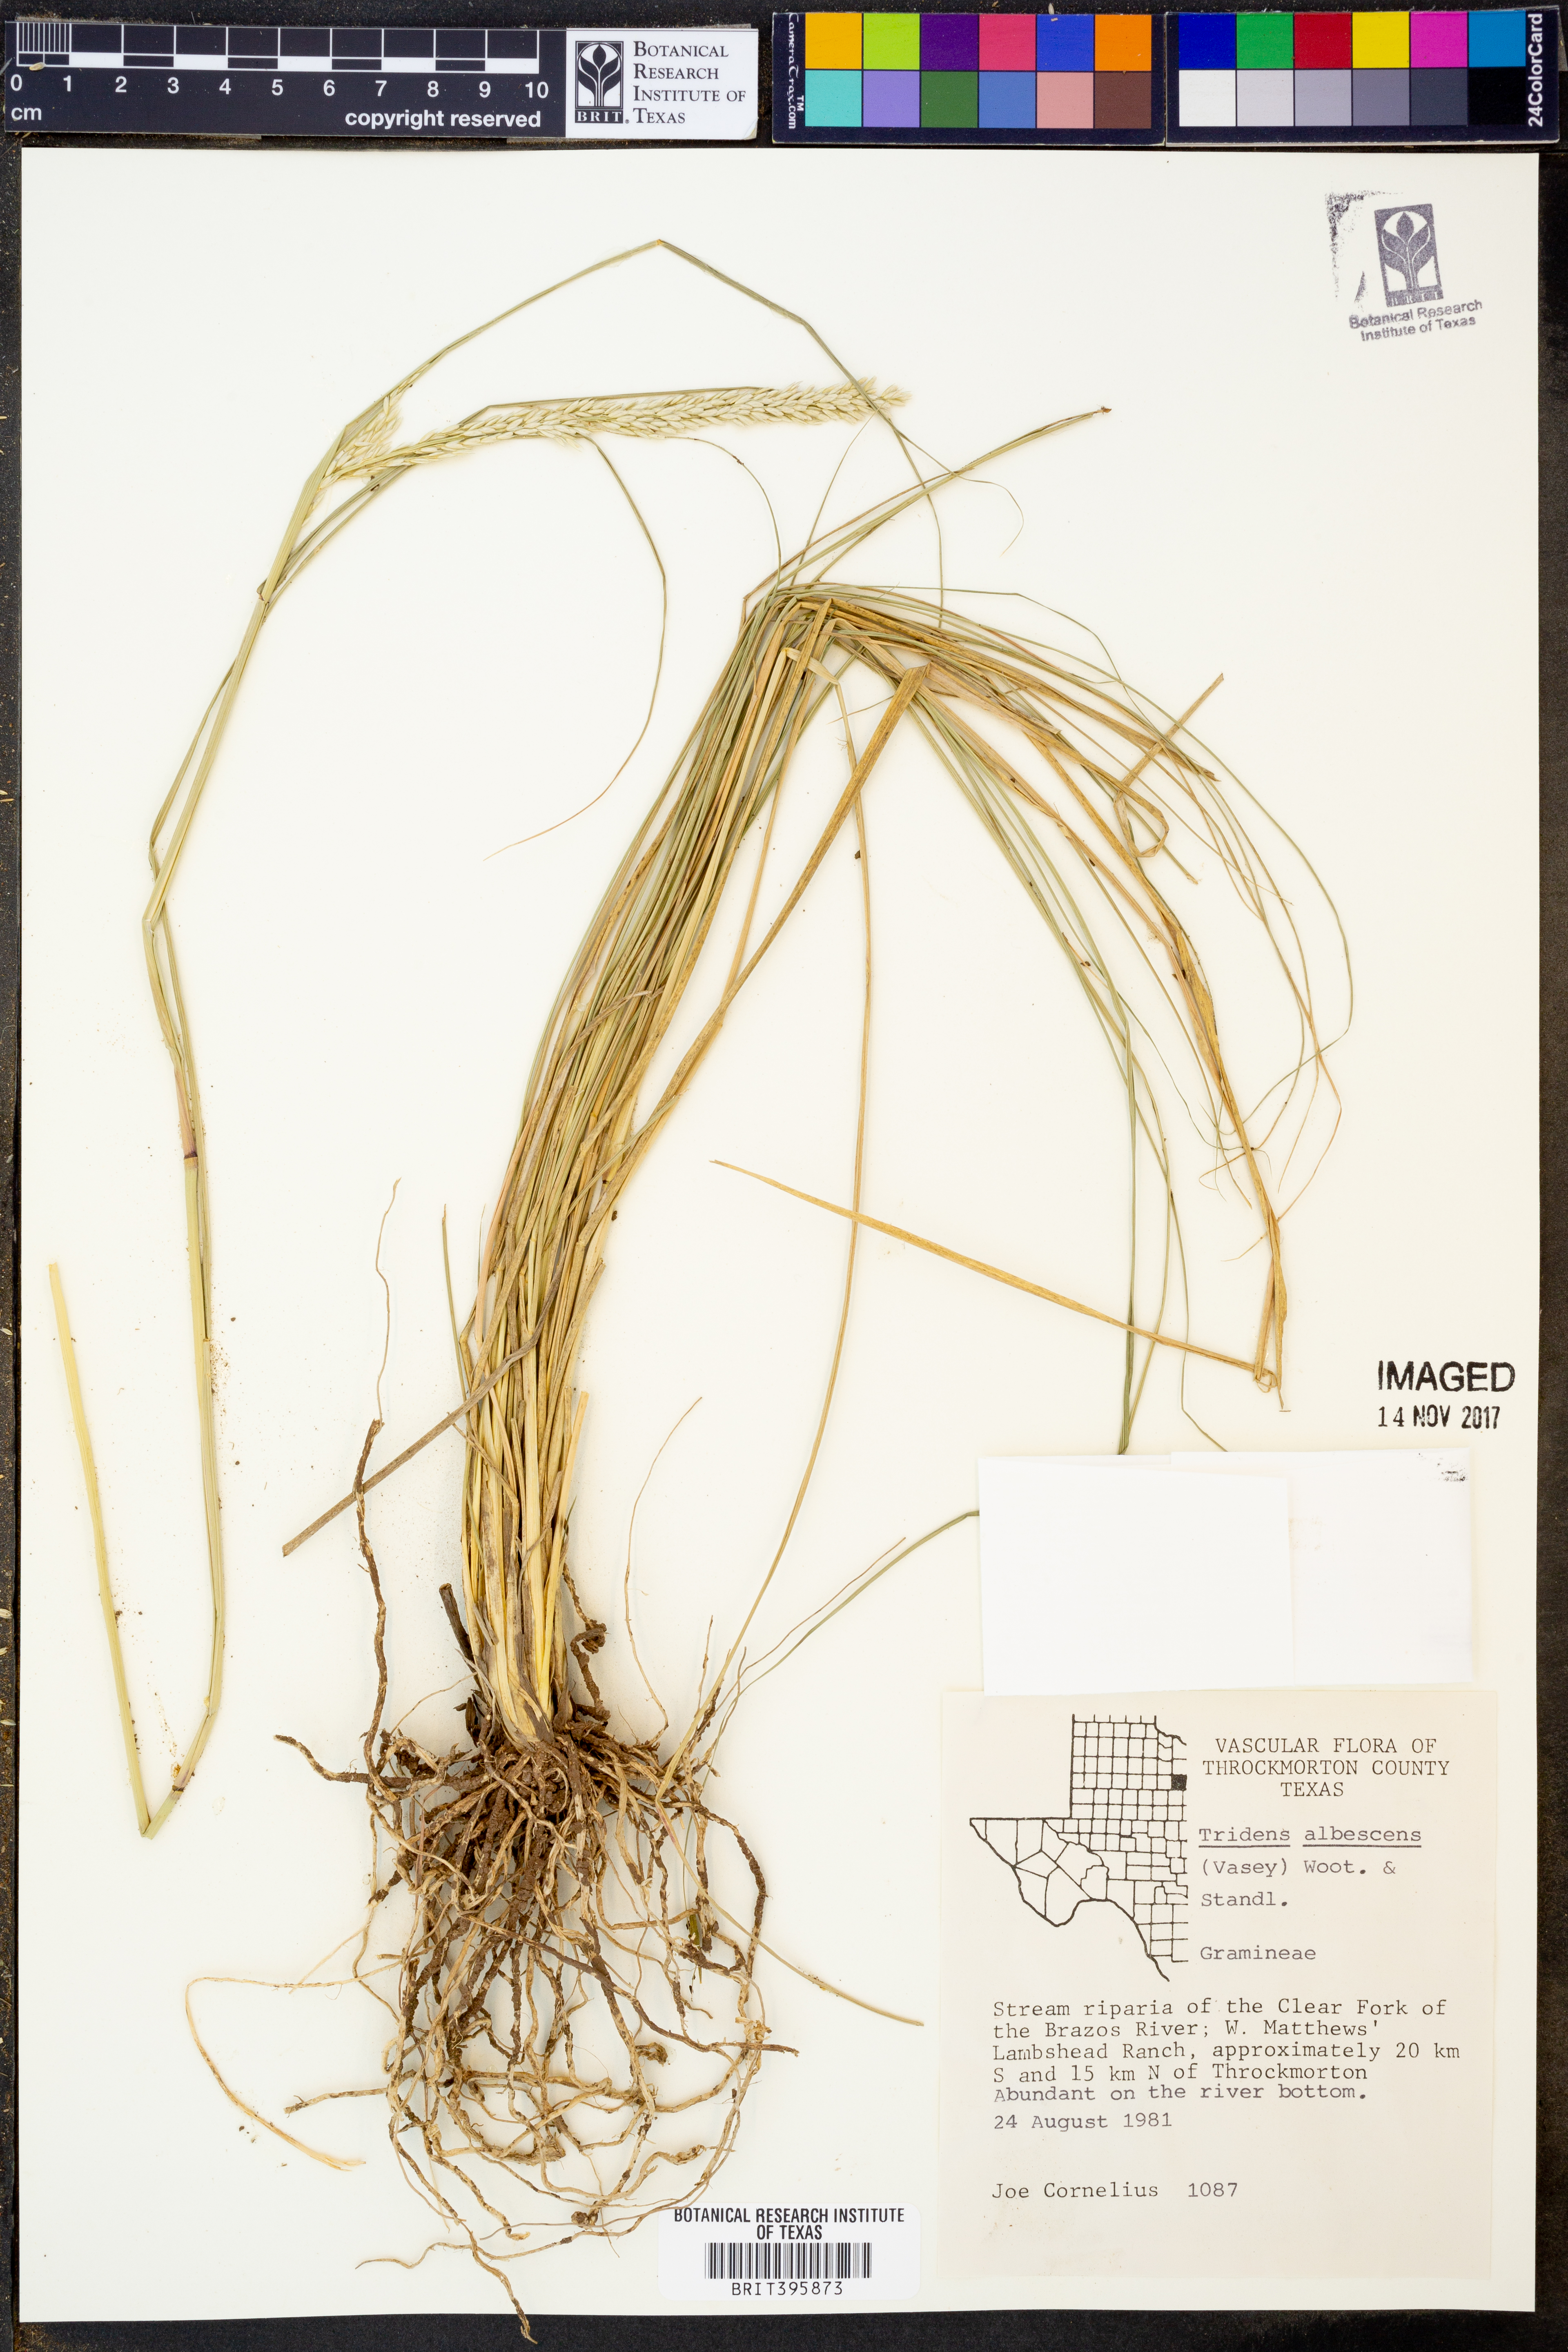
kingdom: Plantae
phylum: Tracheophyta
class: Liliopsida
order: Poales
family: Poaceae
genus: Tridens
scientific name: Tridens albescens
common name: White tridens
